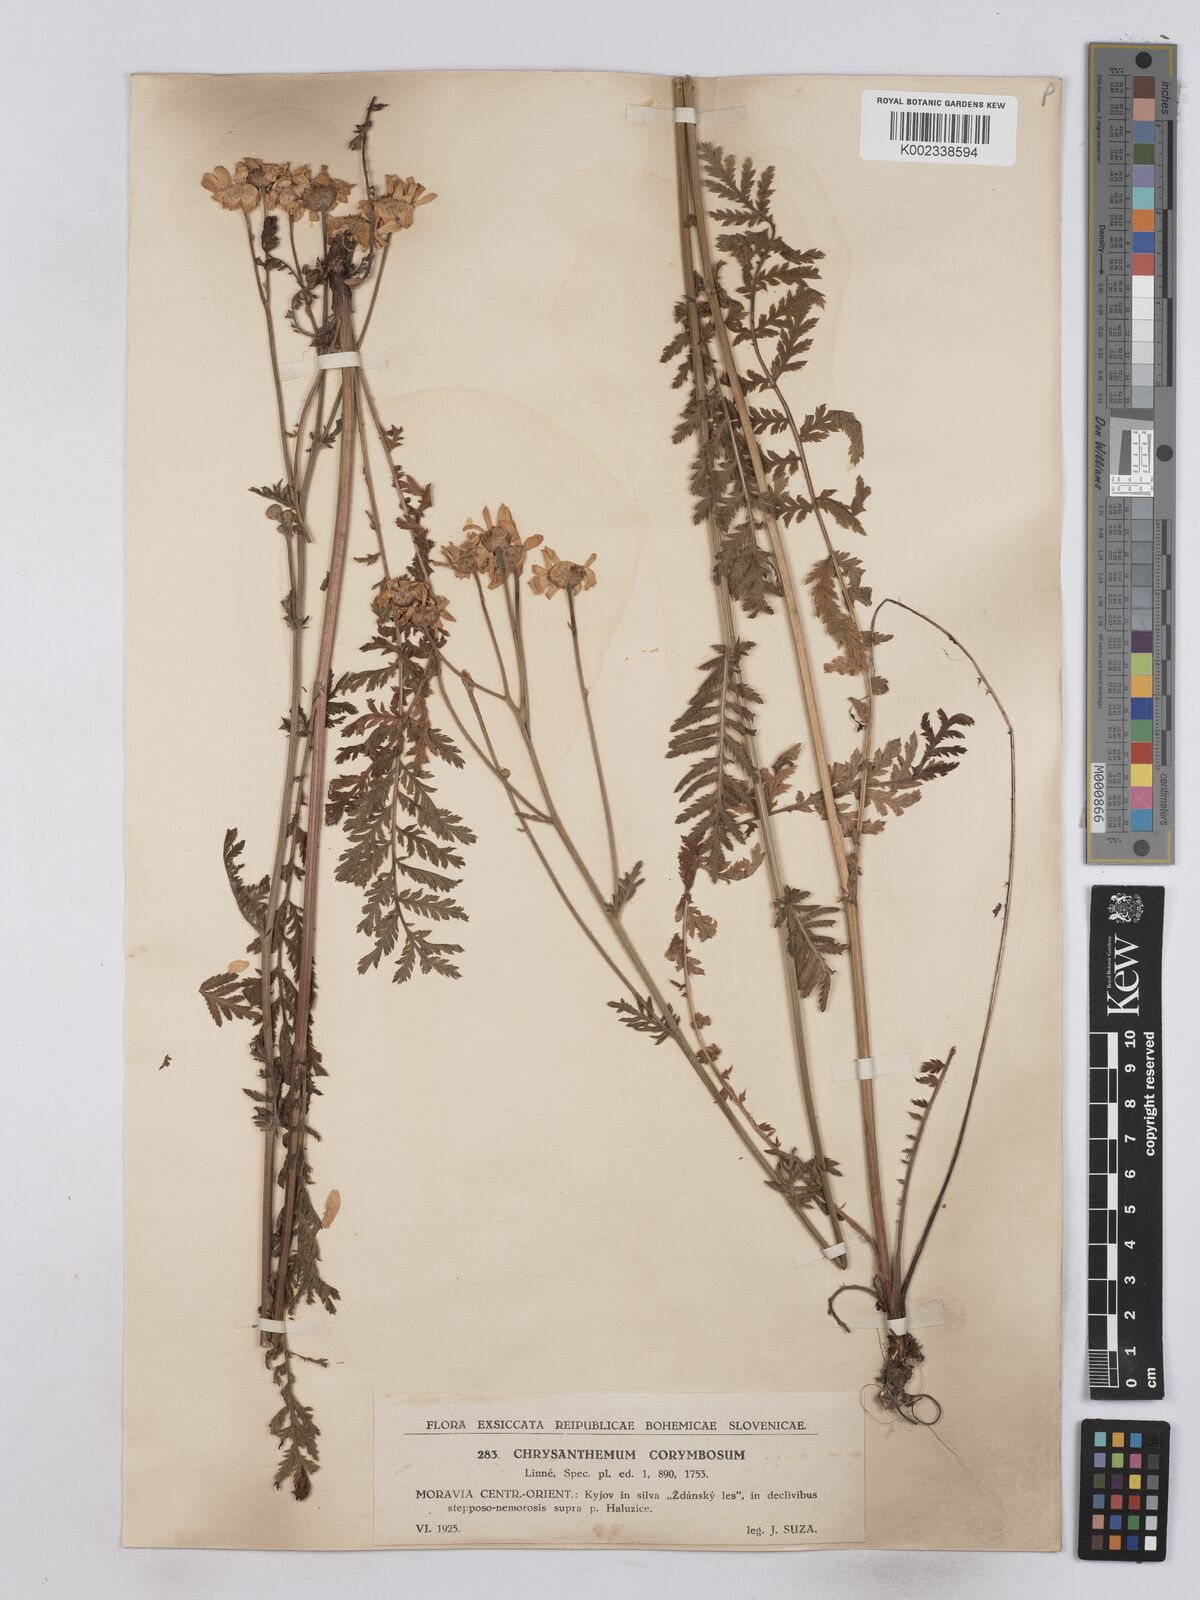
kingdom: Plantae
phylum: Tracheophyta
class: Magnoliopsida
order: Asterales
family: Asteraceae
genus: Tanacetum
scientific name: Tanacetum corymbosum
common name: Scentless feverfew
